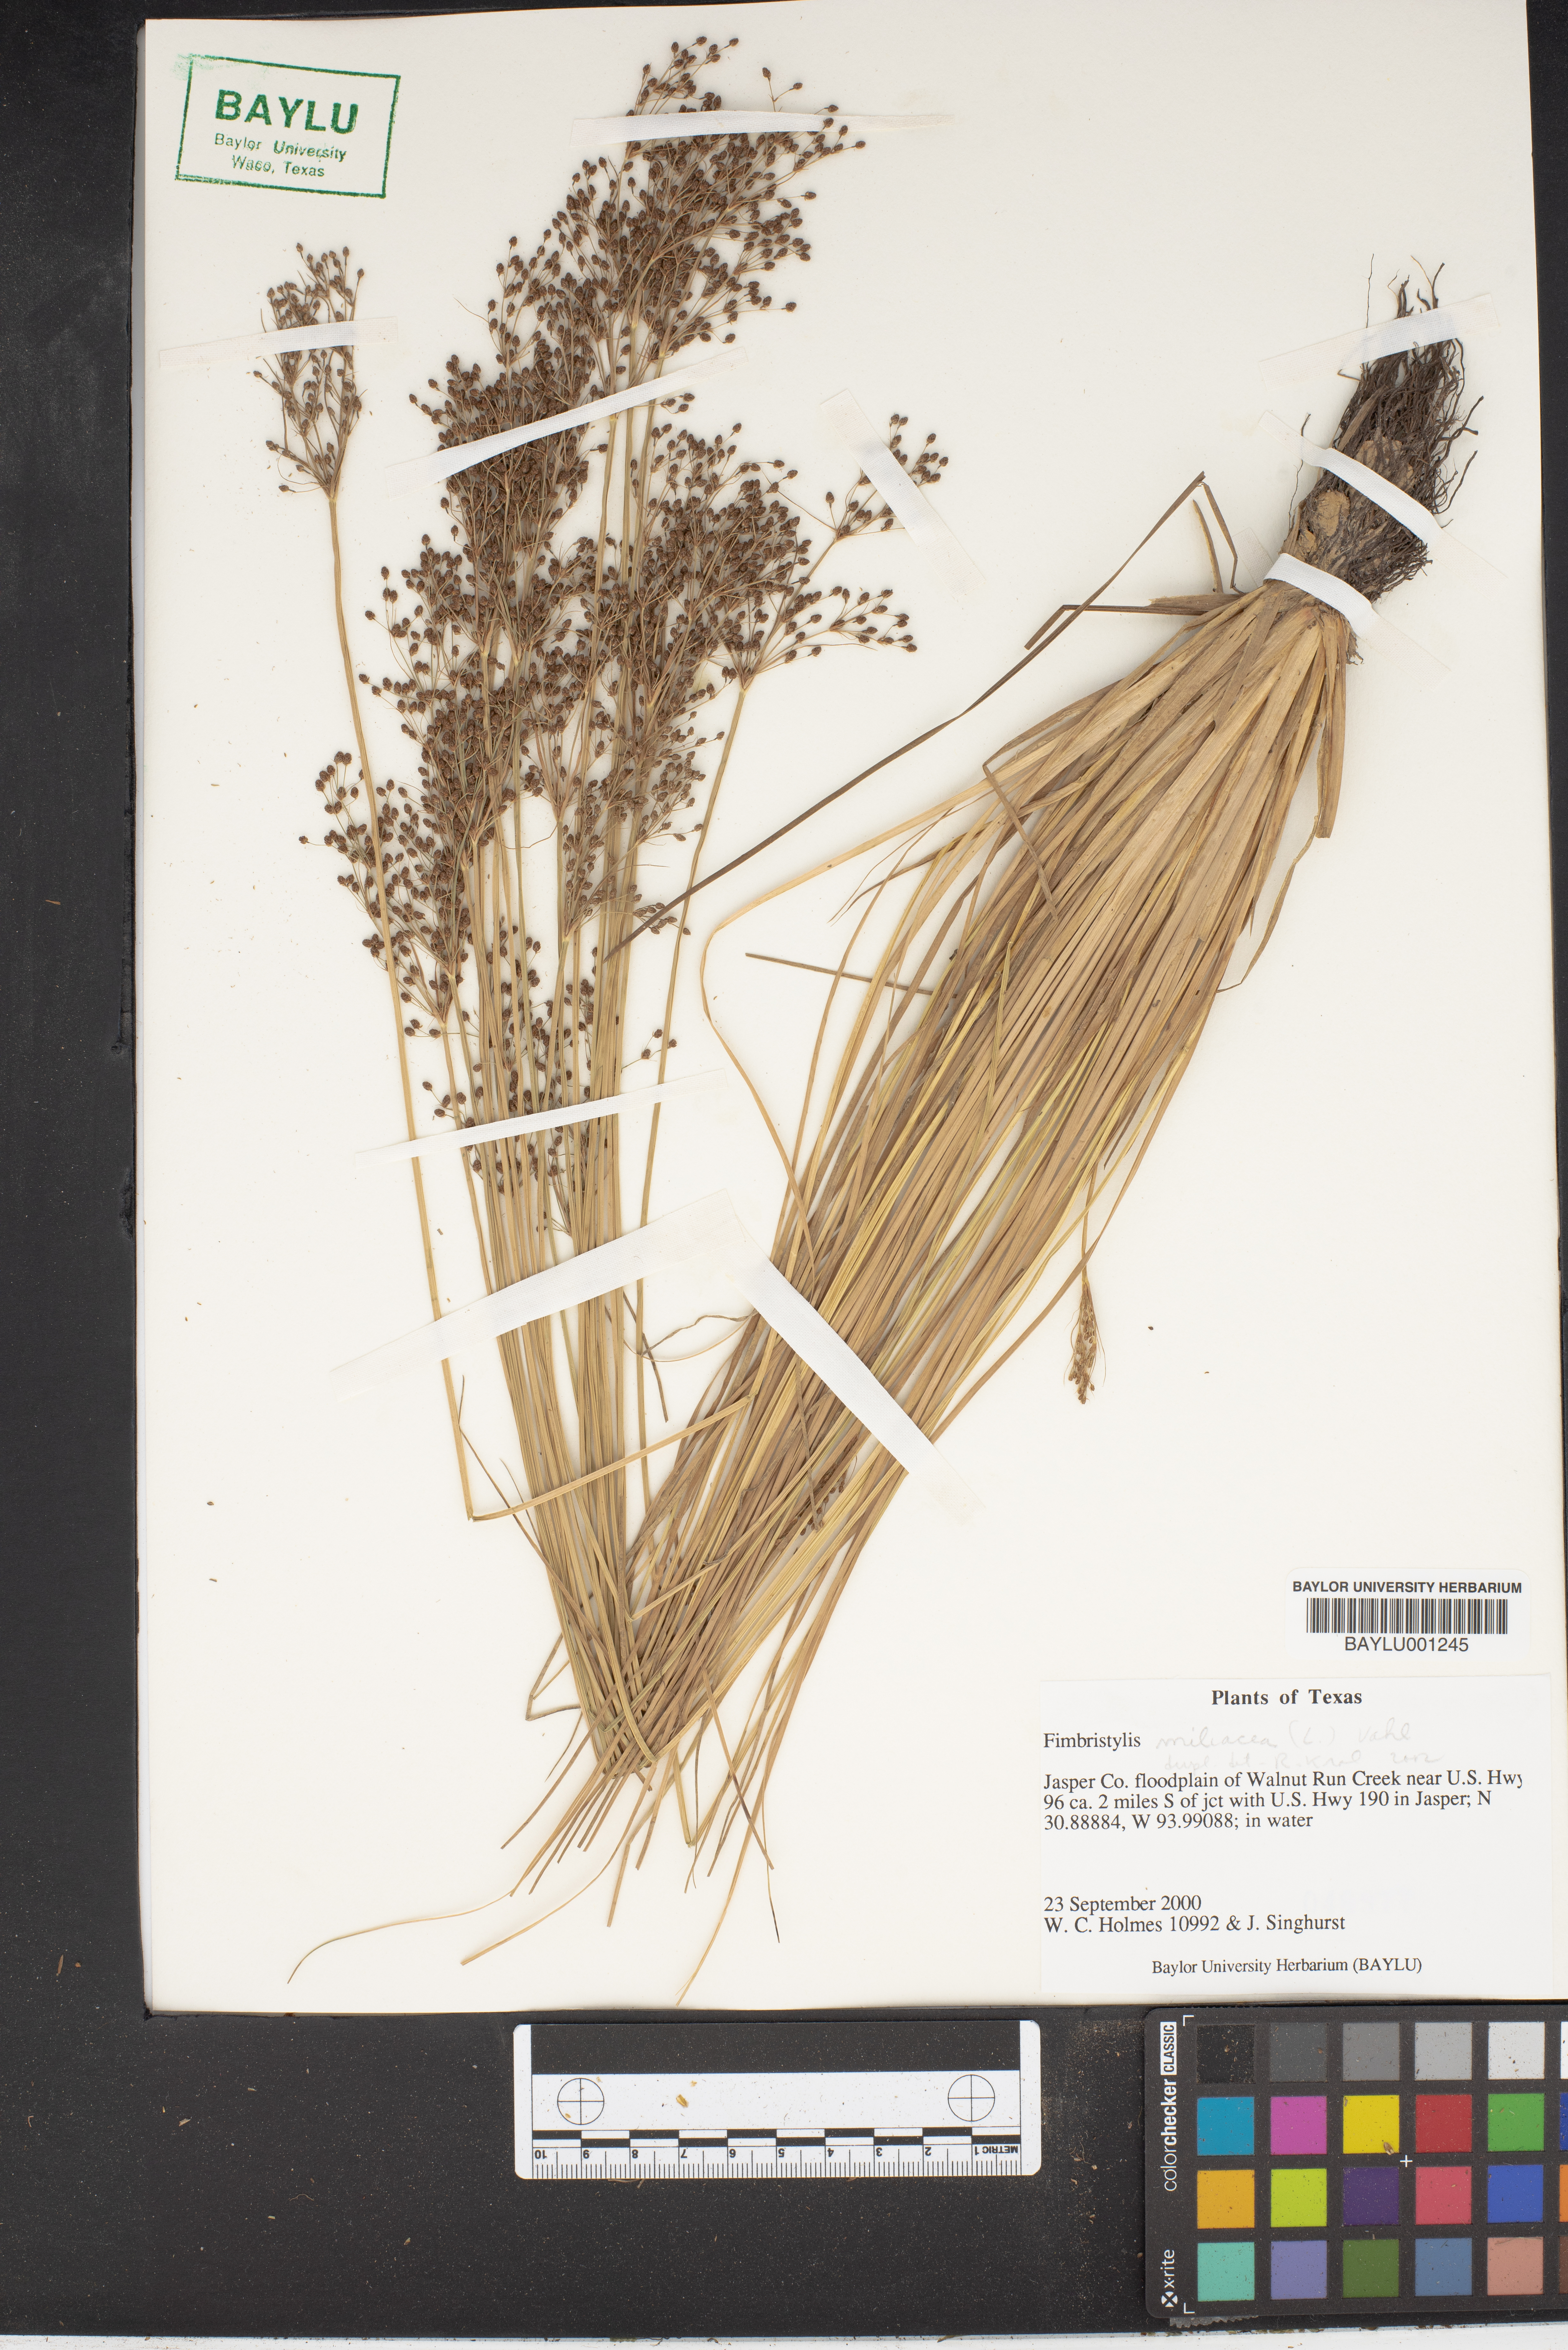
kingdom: Plantae
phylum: Tracheophyta
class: Liliopsida
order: Poales
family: Cyperaceae
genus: Fimbristylis
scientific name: Fimbristylis quinquangularis
